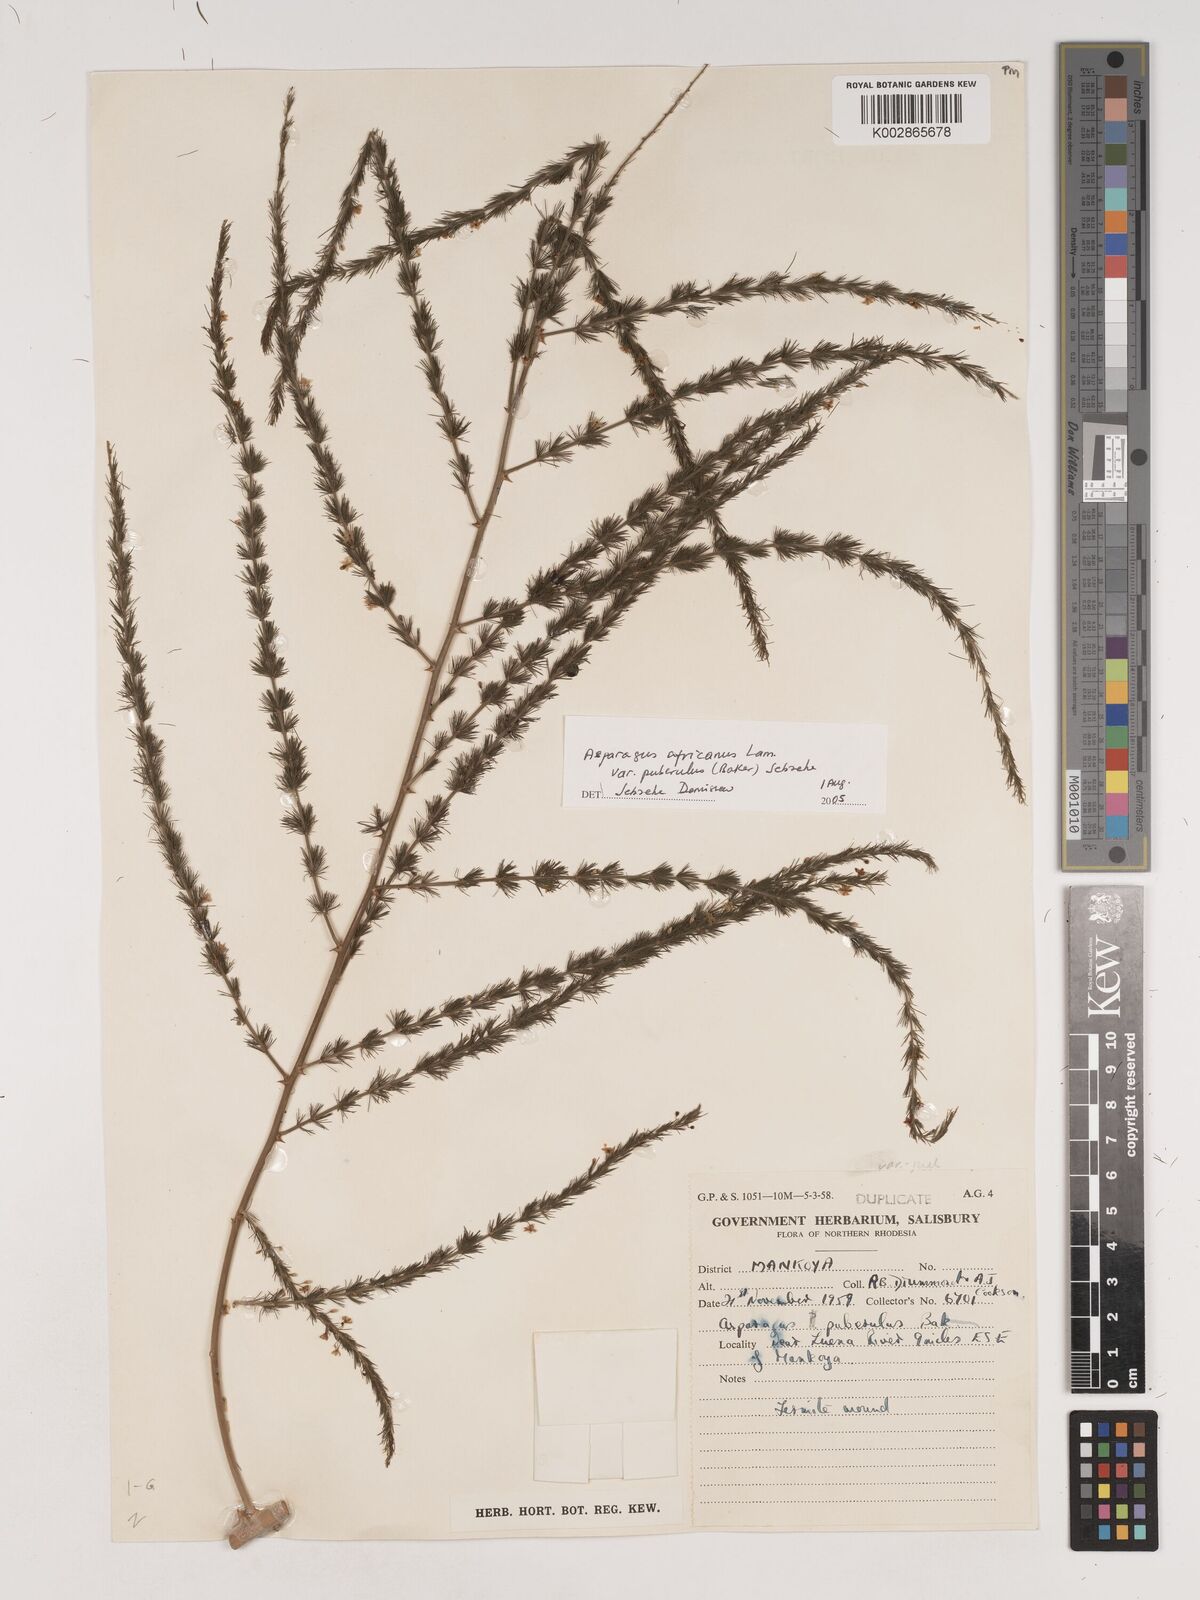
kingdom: Plantae
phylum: Tracheophyta
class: Liliopsida
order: Asparagales
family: Asparagaceae
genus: Asparagus
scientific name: Asparagus
